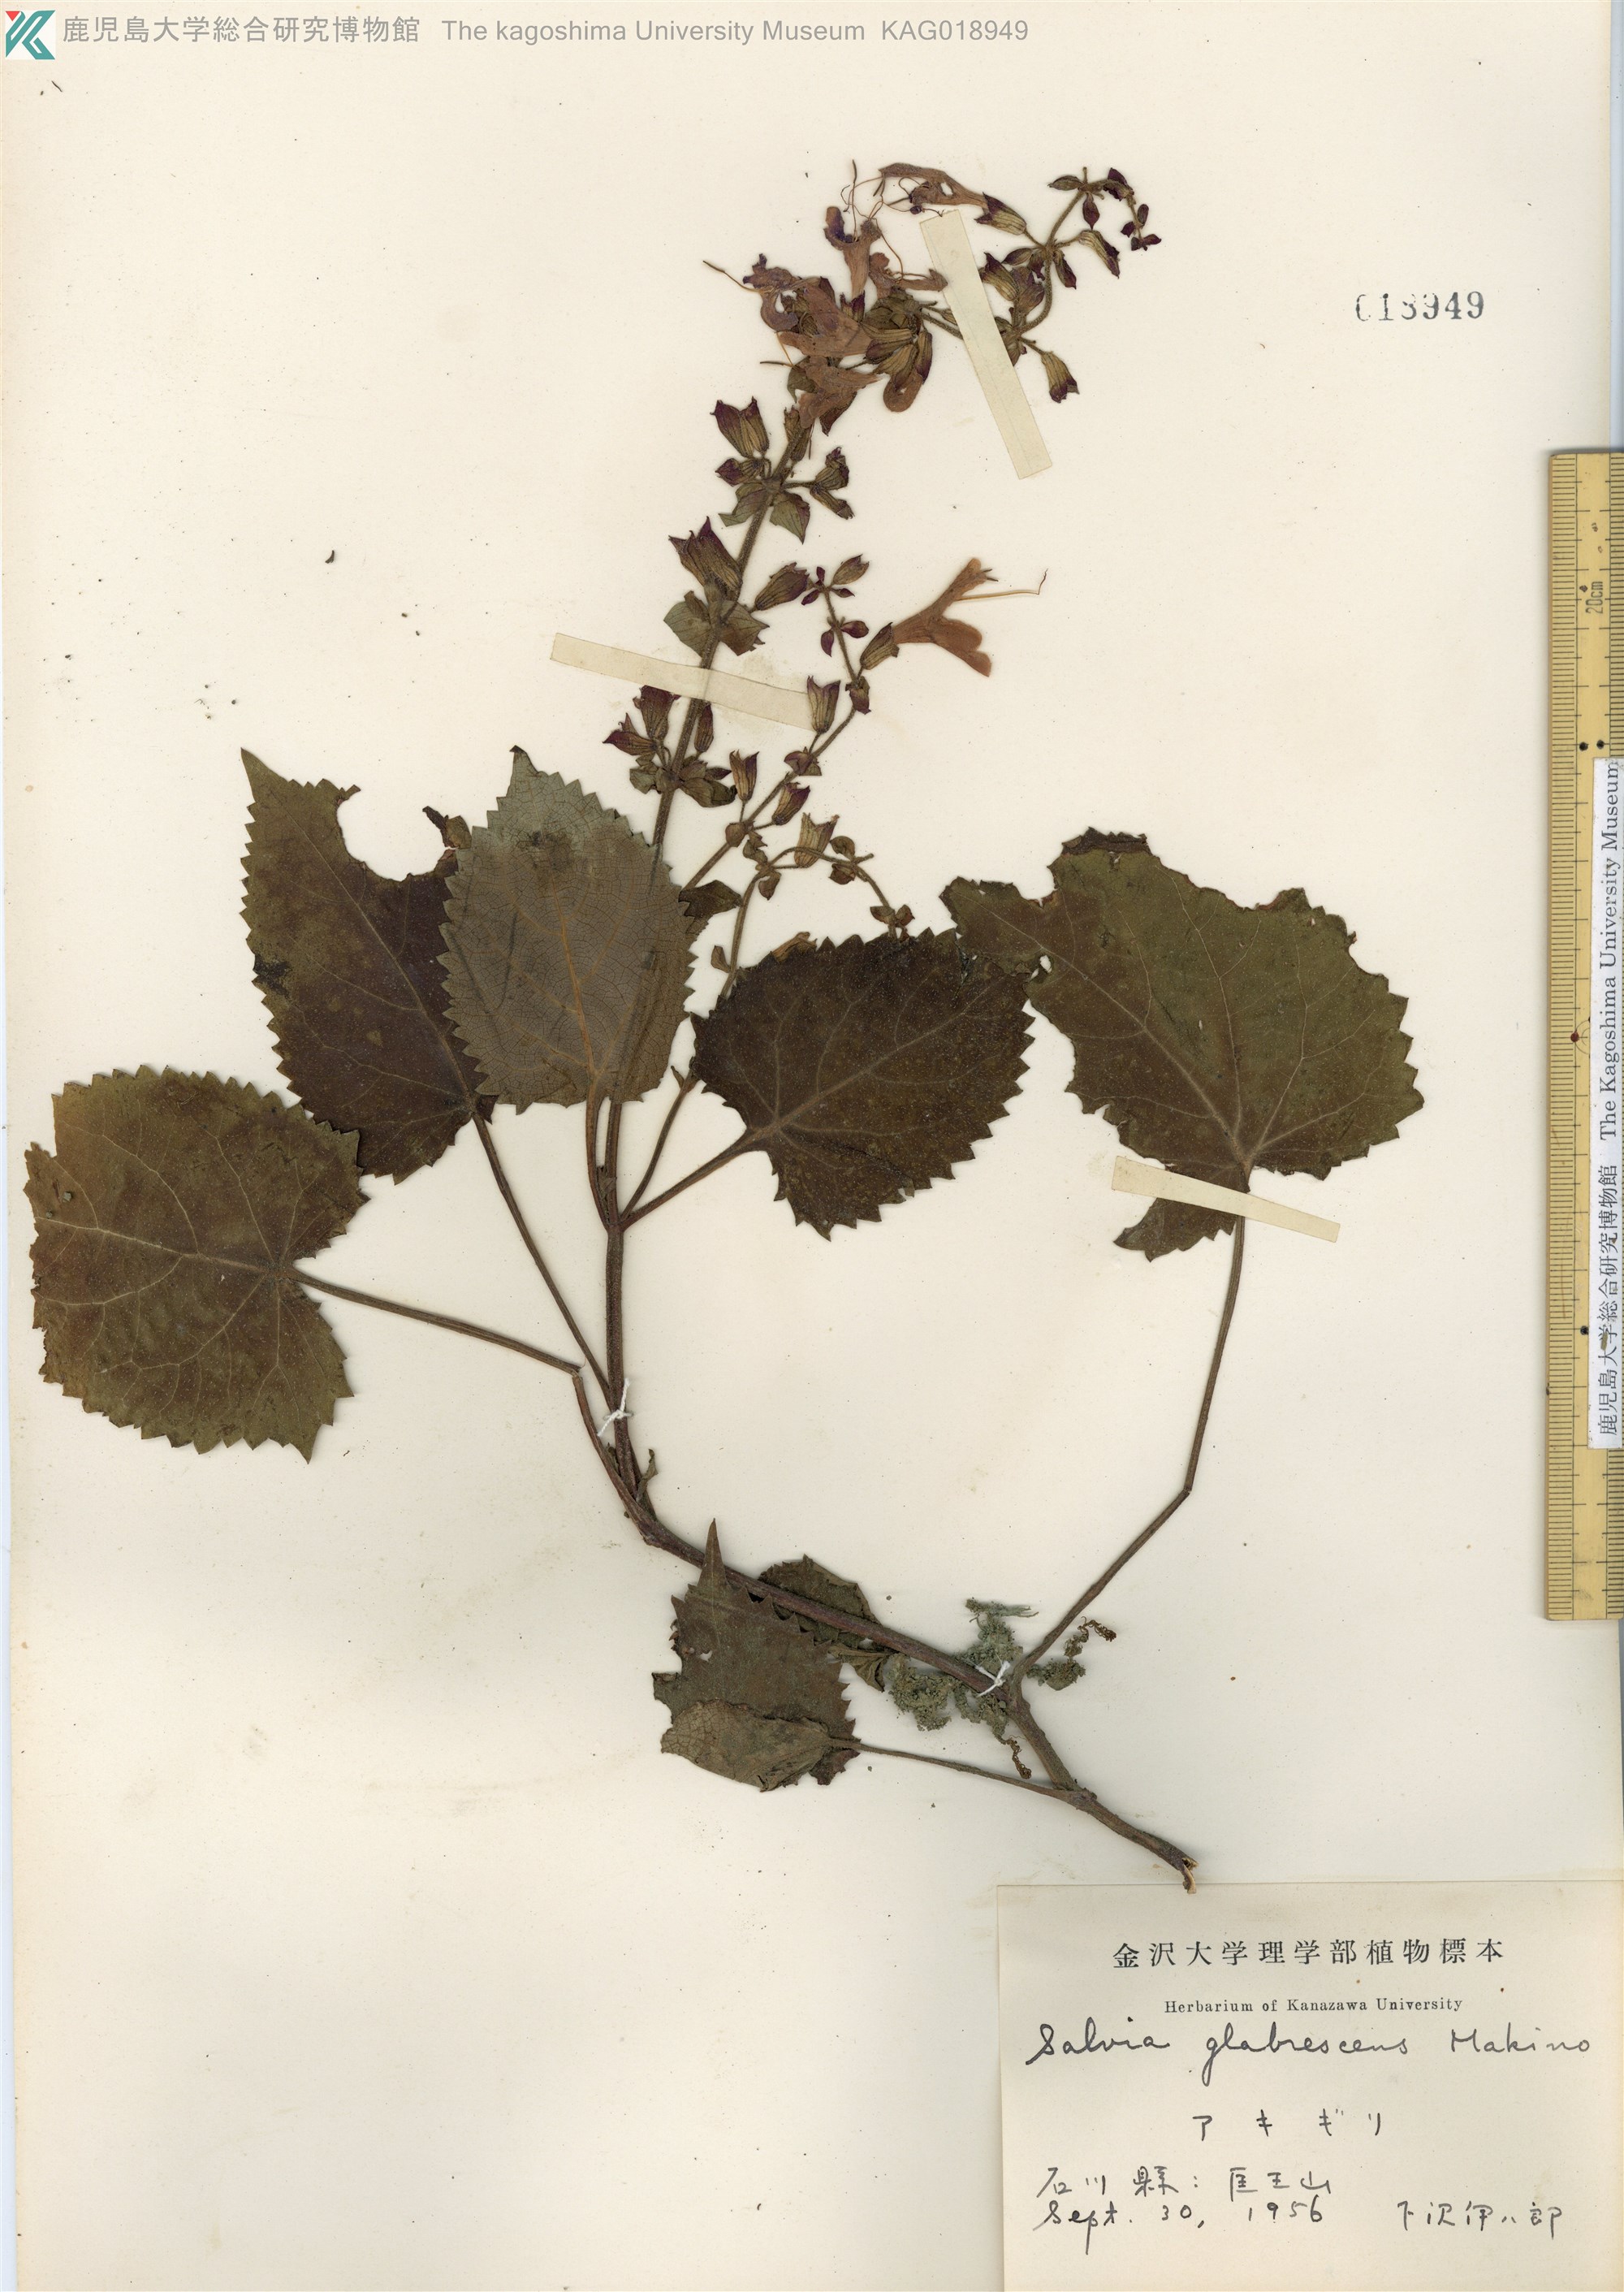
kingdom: Plantae
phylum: Tracheophyta
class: Magnoliopsida
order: Lamiales
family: Lamiaceae
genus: Salvia
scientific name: Salvia glabrescens
